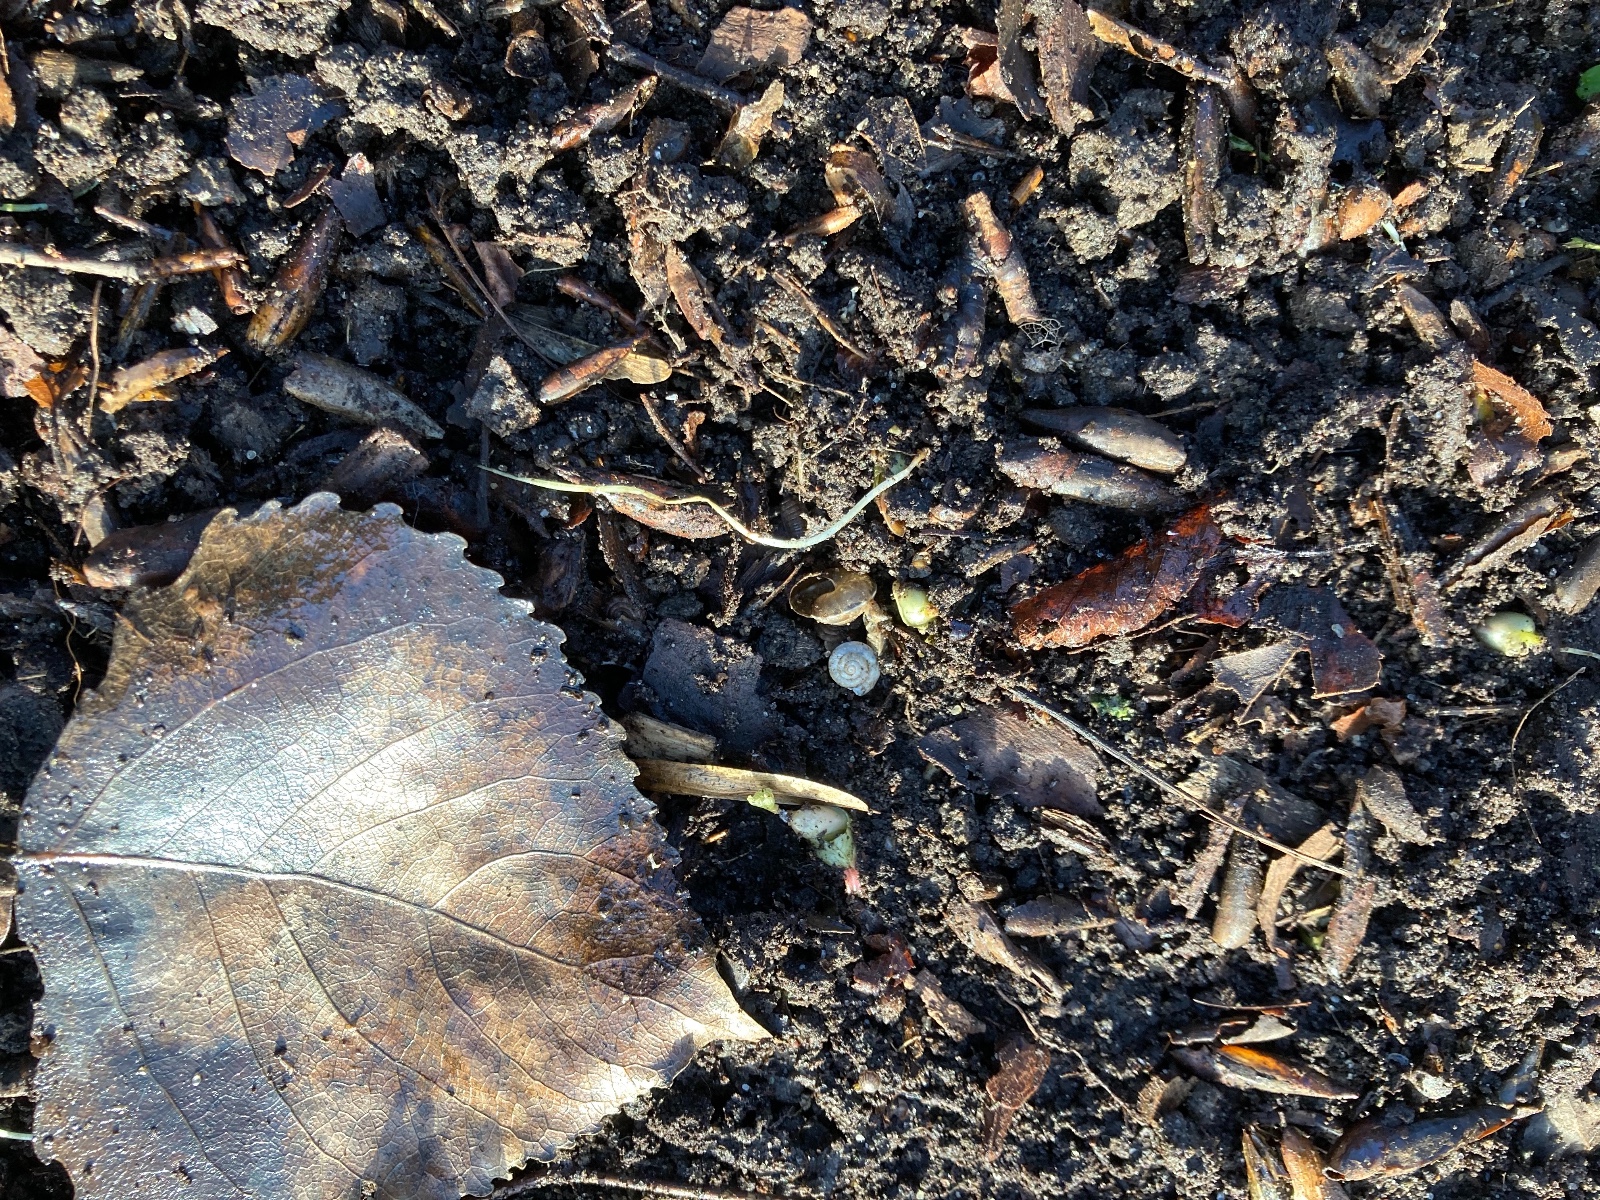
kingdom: Fungi
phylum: Ascomycota
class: Leotiomycetes
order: Helotiales
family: Pezizellaceae
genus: Gemmina
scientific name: Gemmina gemmarum
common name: poppelskæl-gulskive
